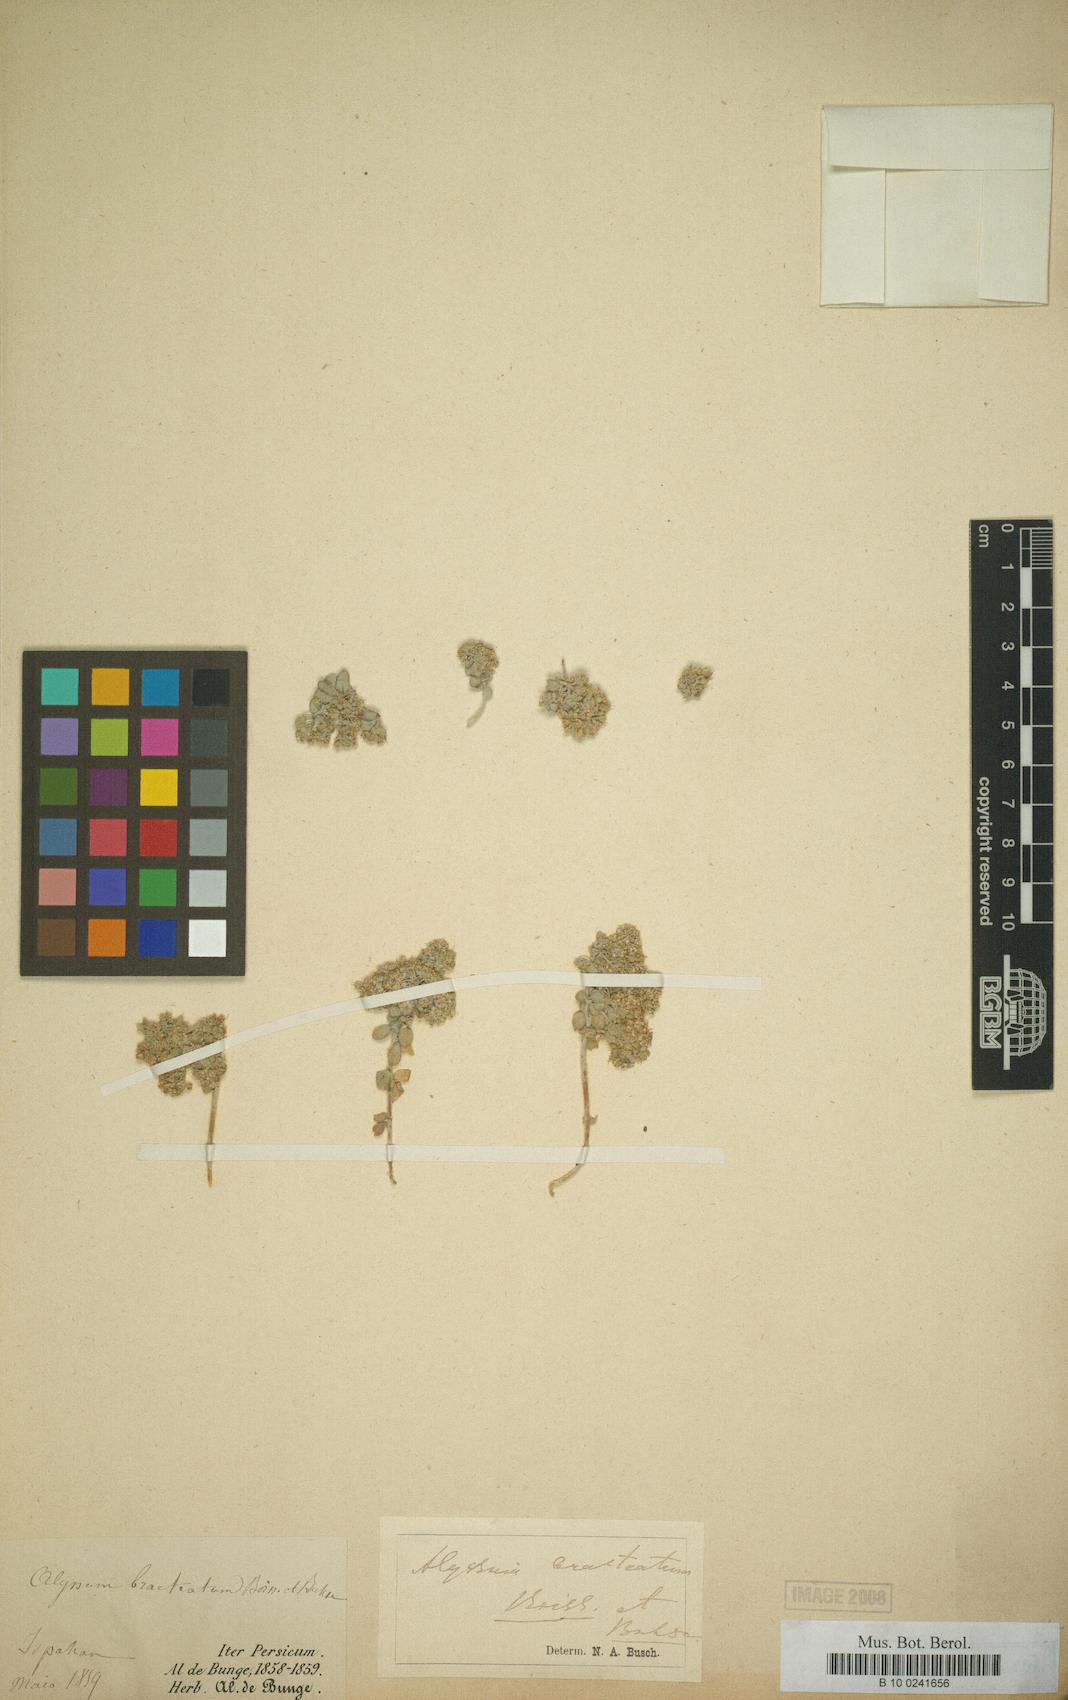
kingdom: Plantae
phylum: Tracheophyta
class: Magnoliopsida
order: Brassicales
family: Brassicaceae
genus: Odontarrhena
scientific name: Odontarrhena bracteata
